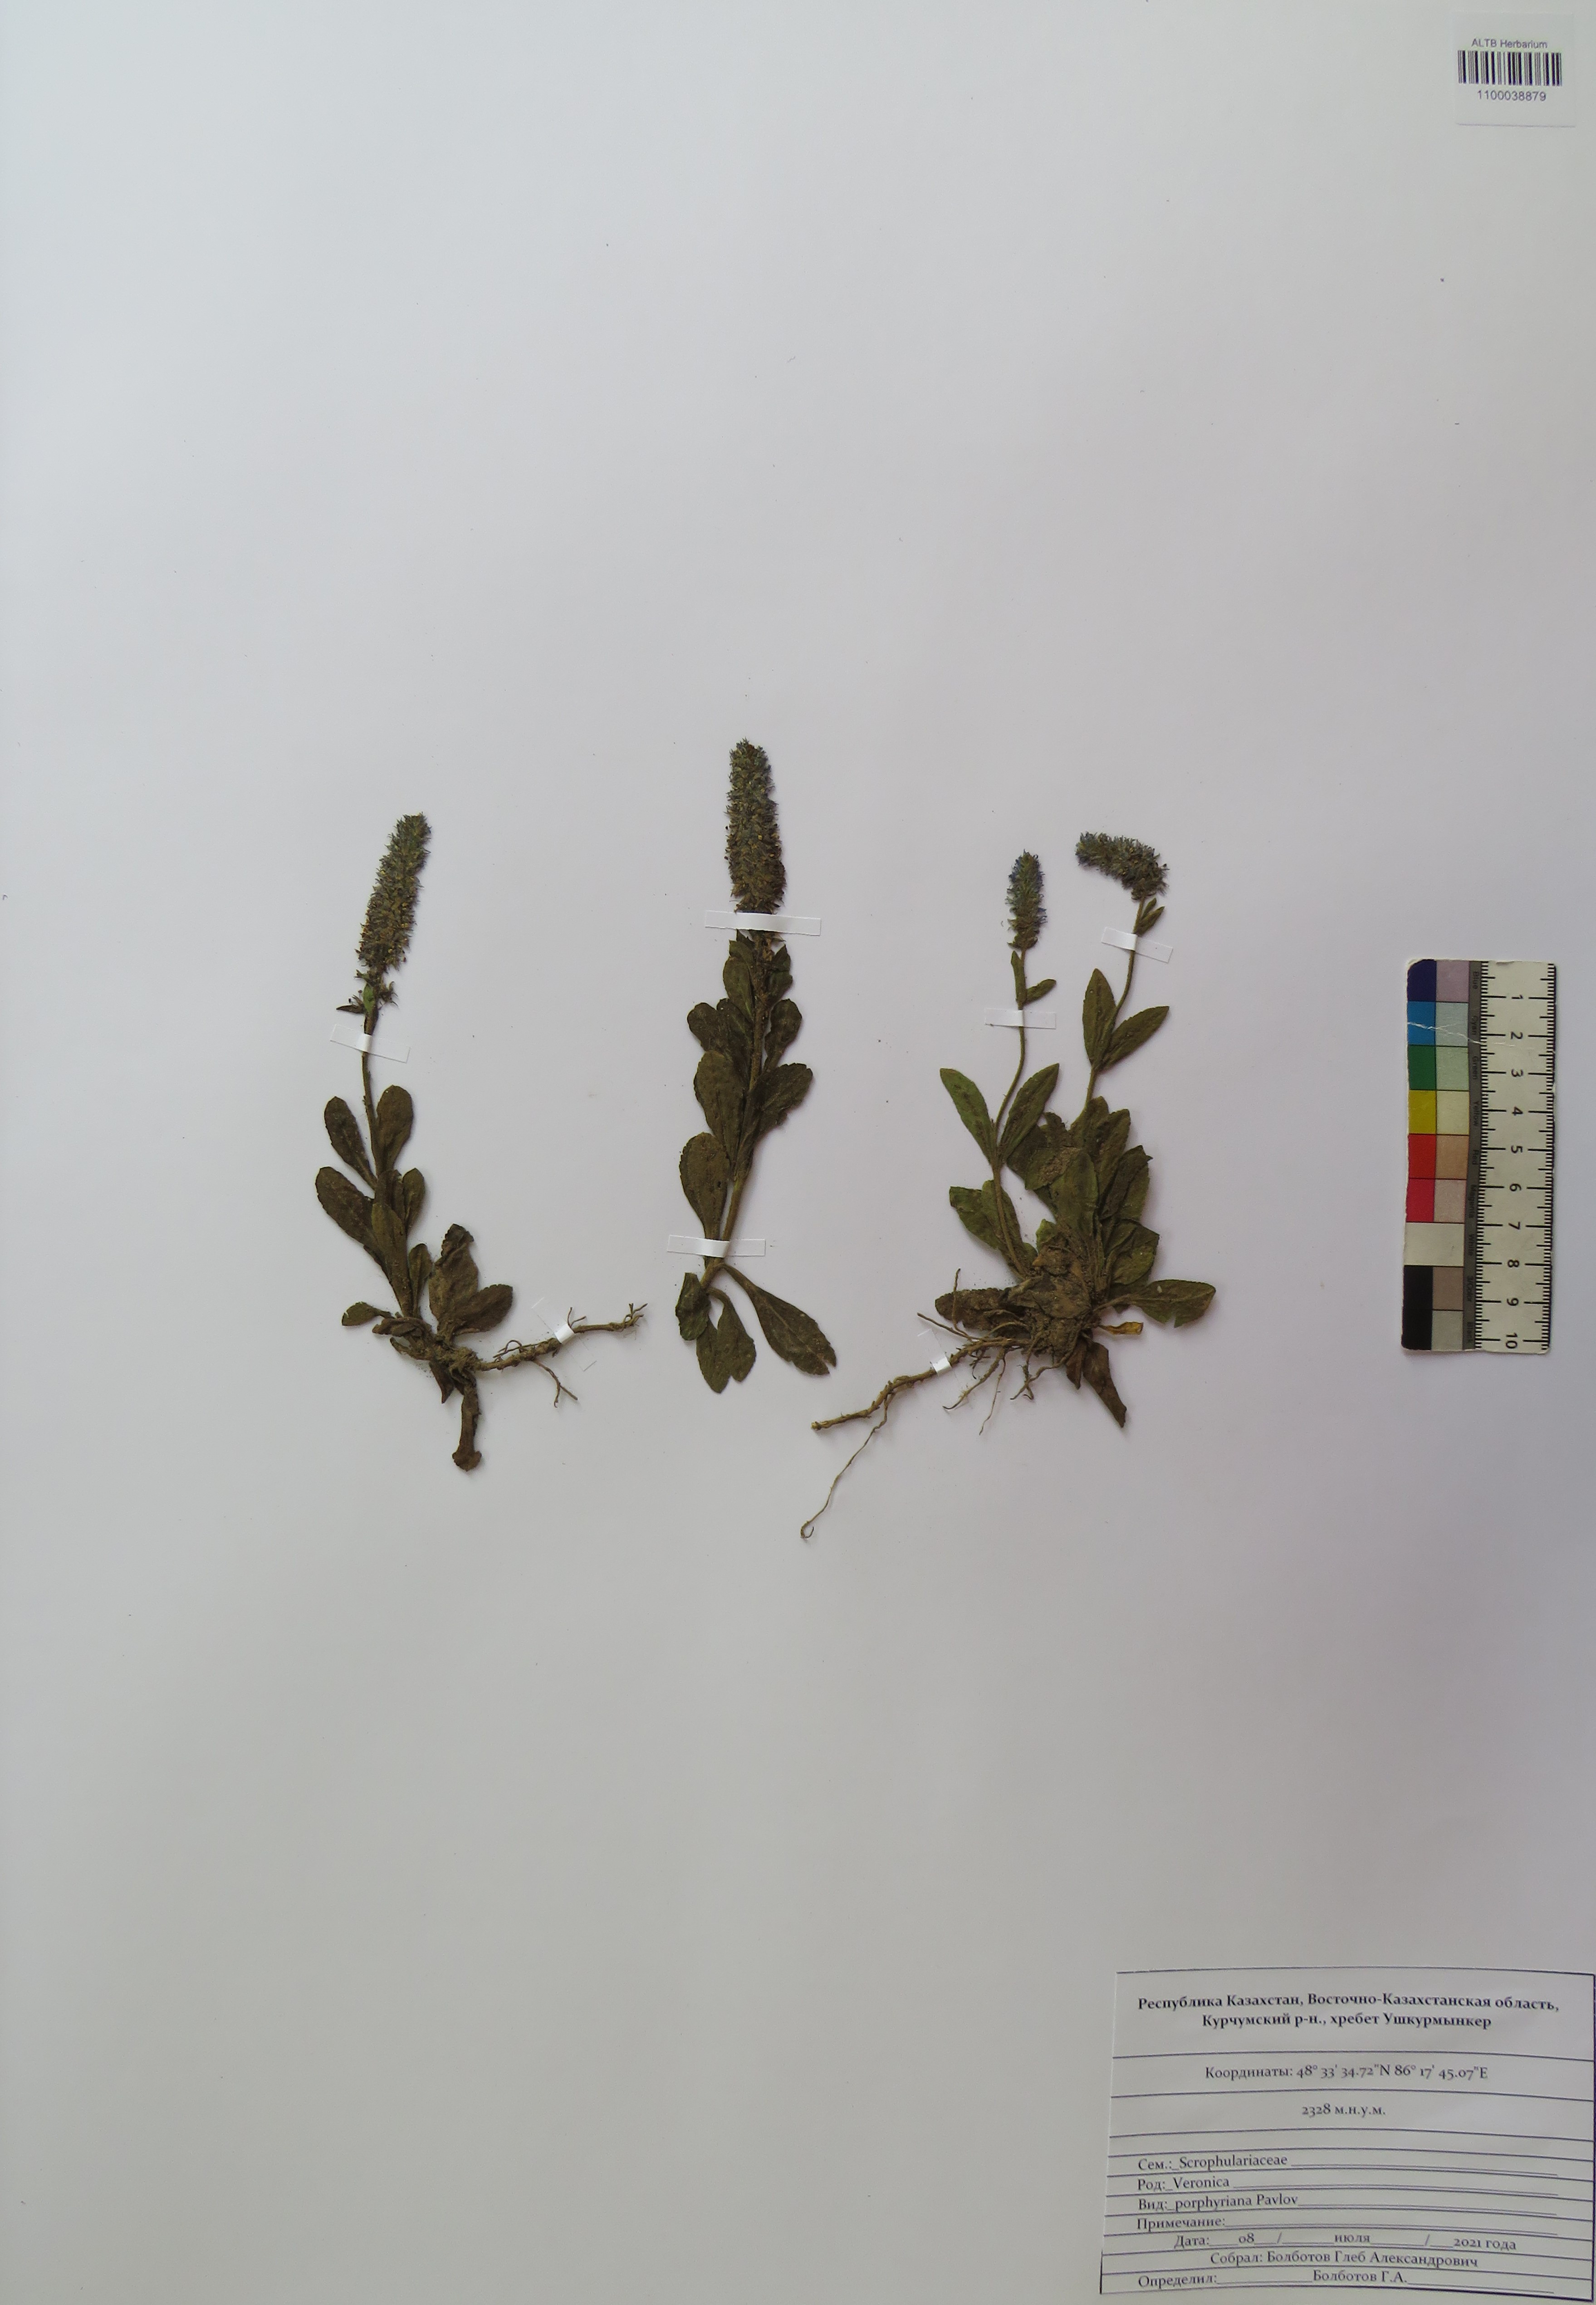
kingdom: Plantae
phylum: Tracheophyta
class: Magnoliopsida
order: Lamiales
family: Plantaginaceae
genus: Veronica
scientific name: Veronica porphyriana
